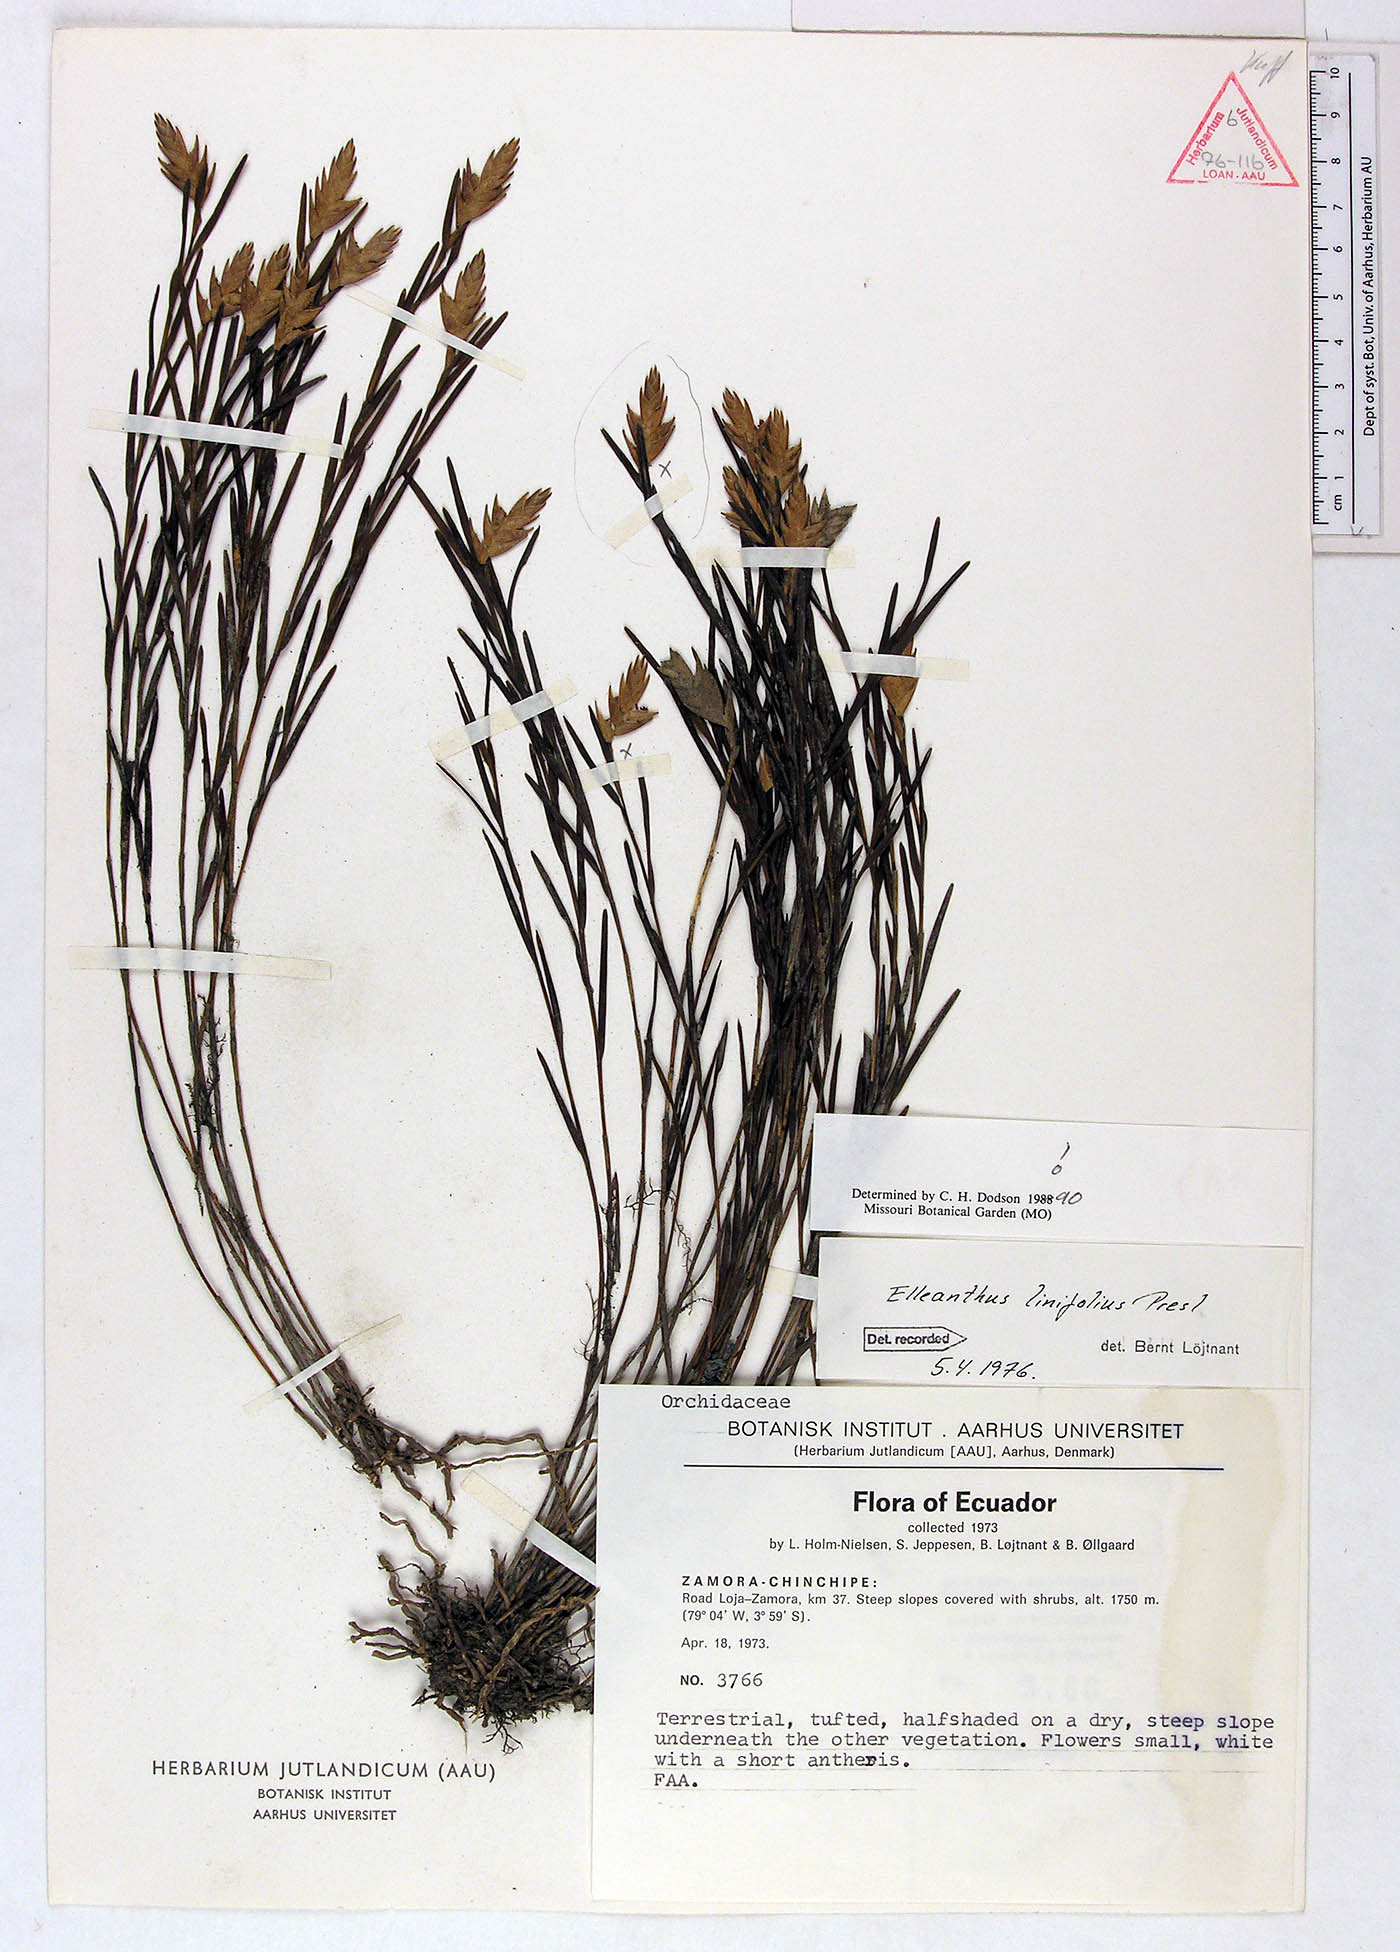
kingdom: Plantae
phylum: Tracheophyta
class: Liliopsida
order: Asparagales
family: Orchidaceae
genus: Elleanthus
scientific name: Elleanthus linifolius
